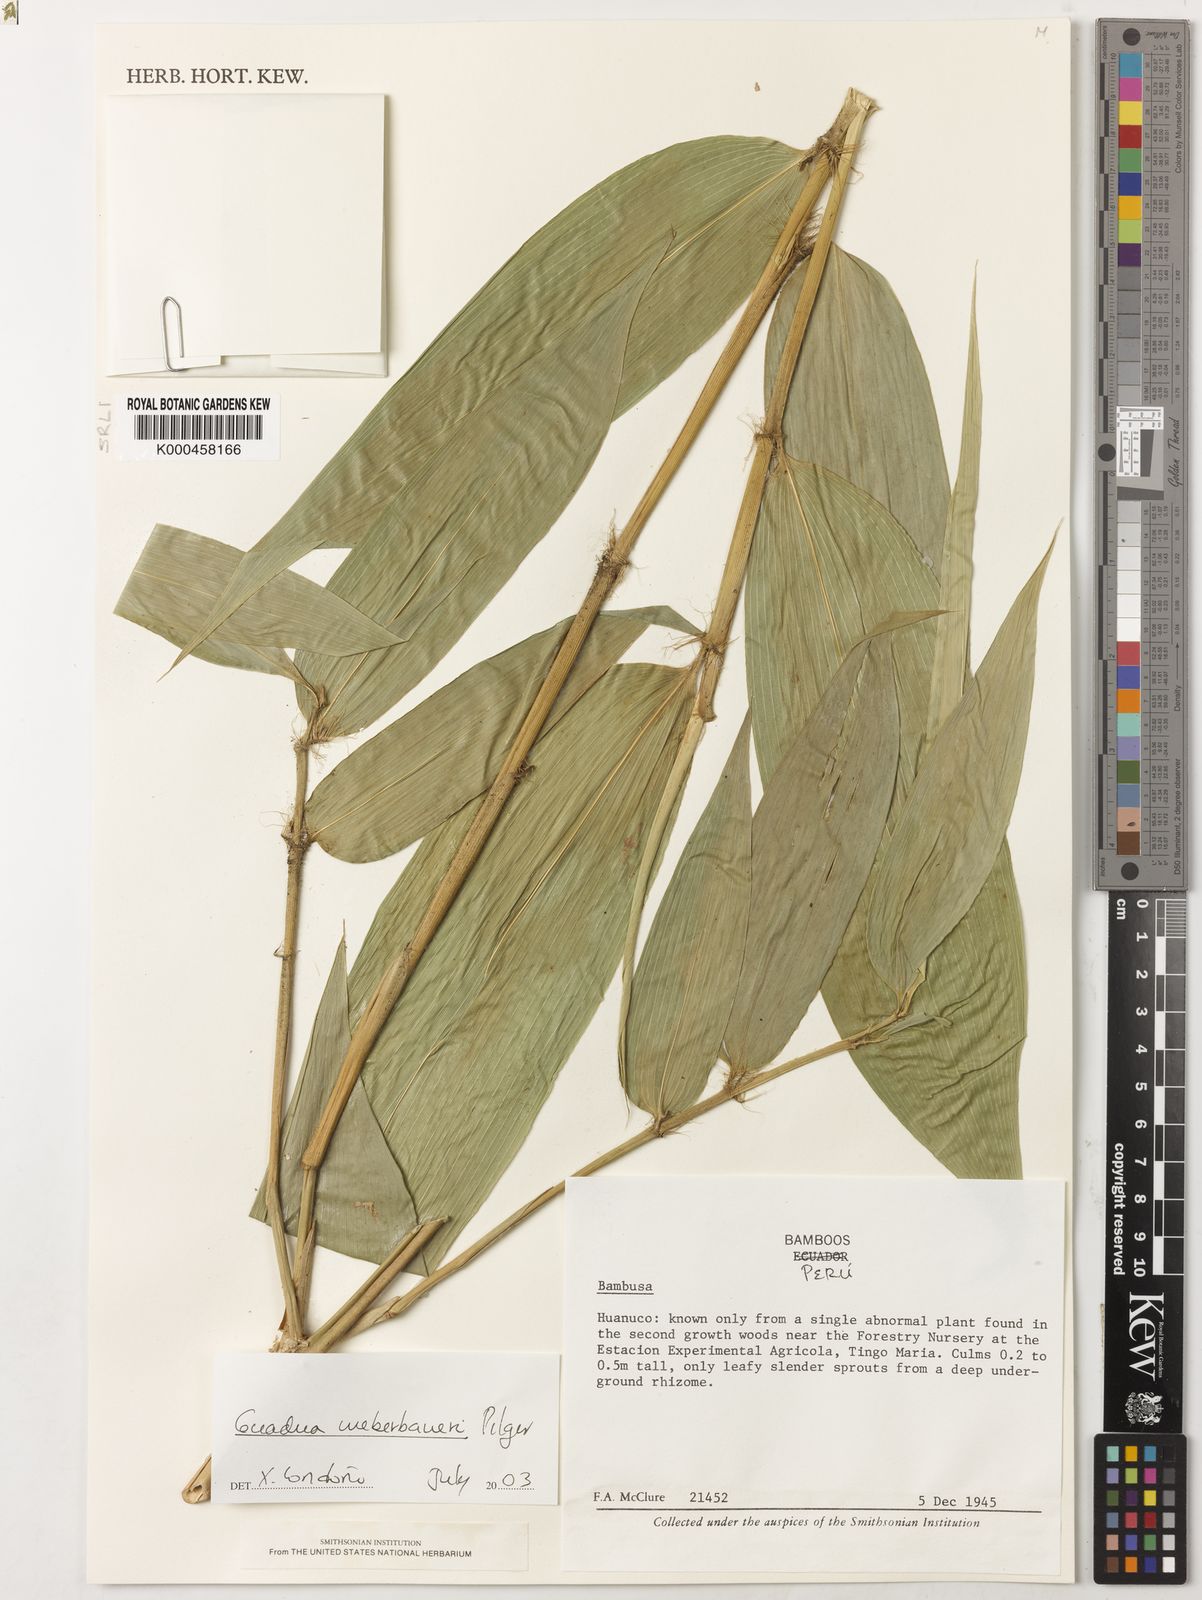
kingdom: Plantae
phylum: Tracheophyta
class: Liliopsida
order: Poales
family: Poaceae
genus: Guadua
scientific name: Guadua weberbaueri
